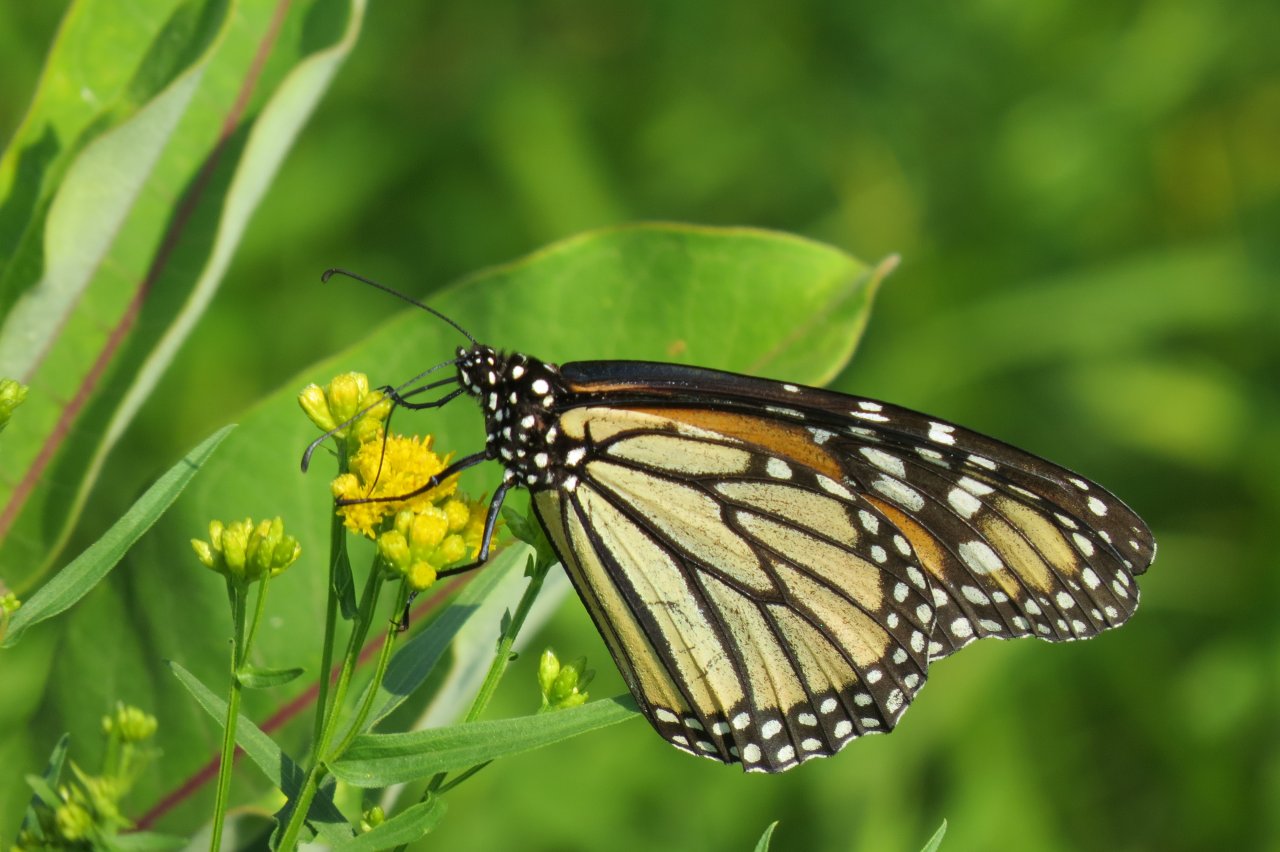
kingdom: Animalia
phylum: Arthropoda
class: Insecta
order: Lepidoptera
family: Nymphalidae
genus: Danaus
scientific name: Danaus plexippus
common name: Monarch
